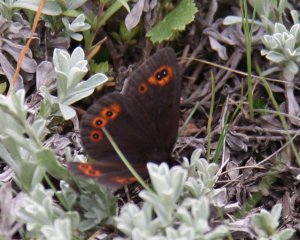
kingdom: Animalia
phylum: Arthropoda
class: Insecta
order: Lepidoptera
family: Nymphalidae
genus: Erebia
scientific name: Erebia epipsodea
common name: Common Alpine
